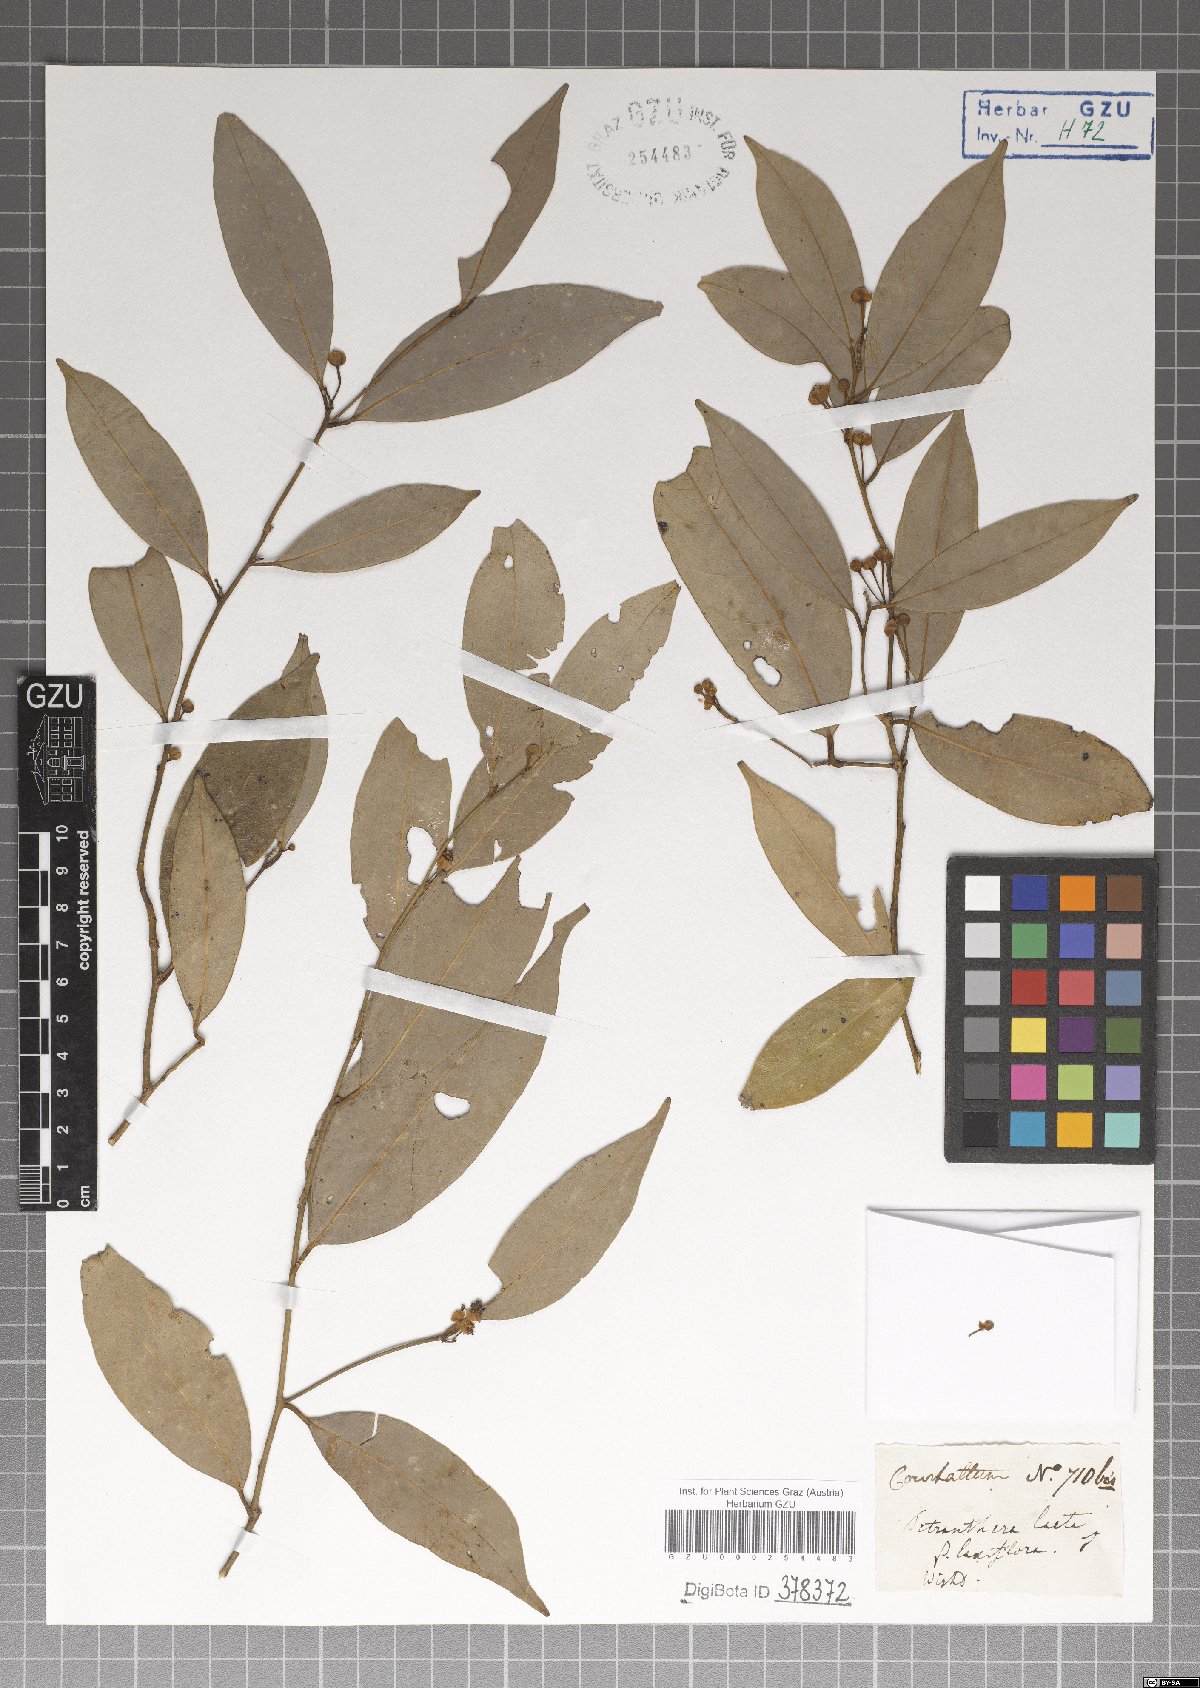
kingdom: Plantae
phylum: Tracheophyta
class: Magnoliopsida
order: Laurales
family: Lauraceae
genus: Litsea
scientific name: Litsea laeta
